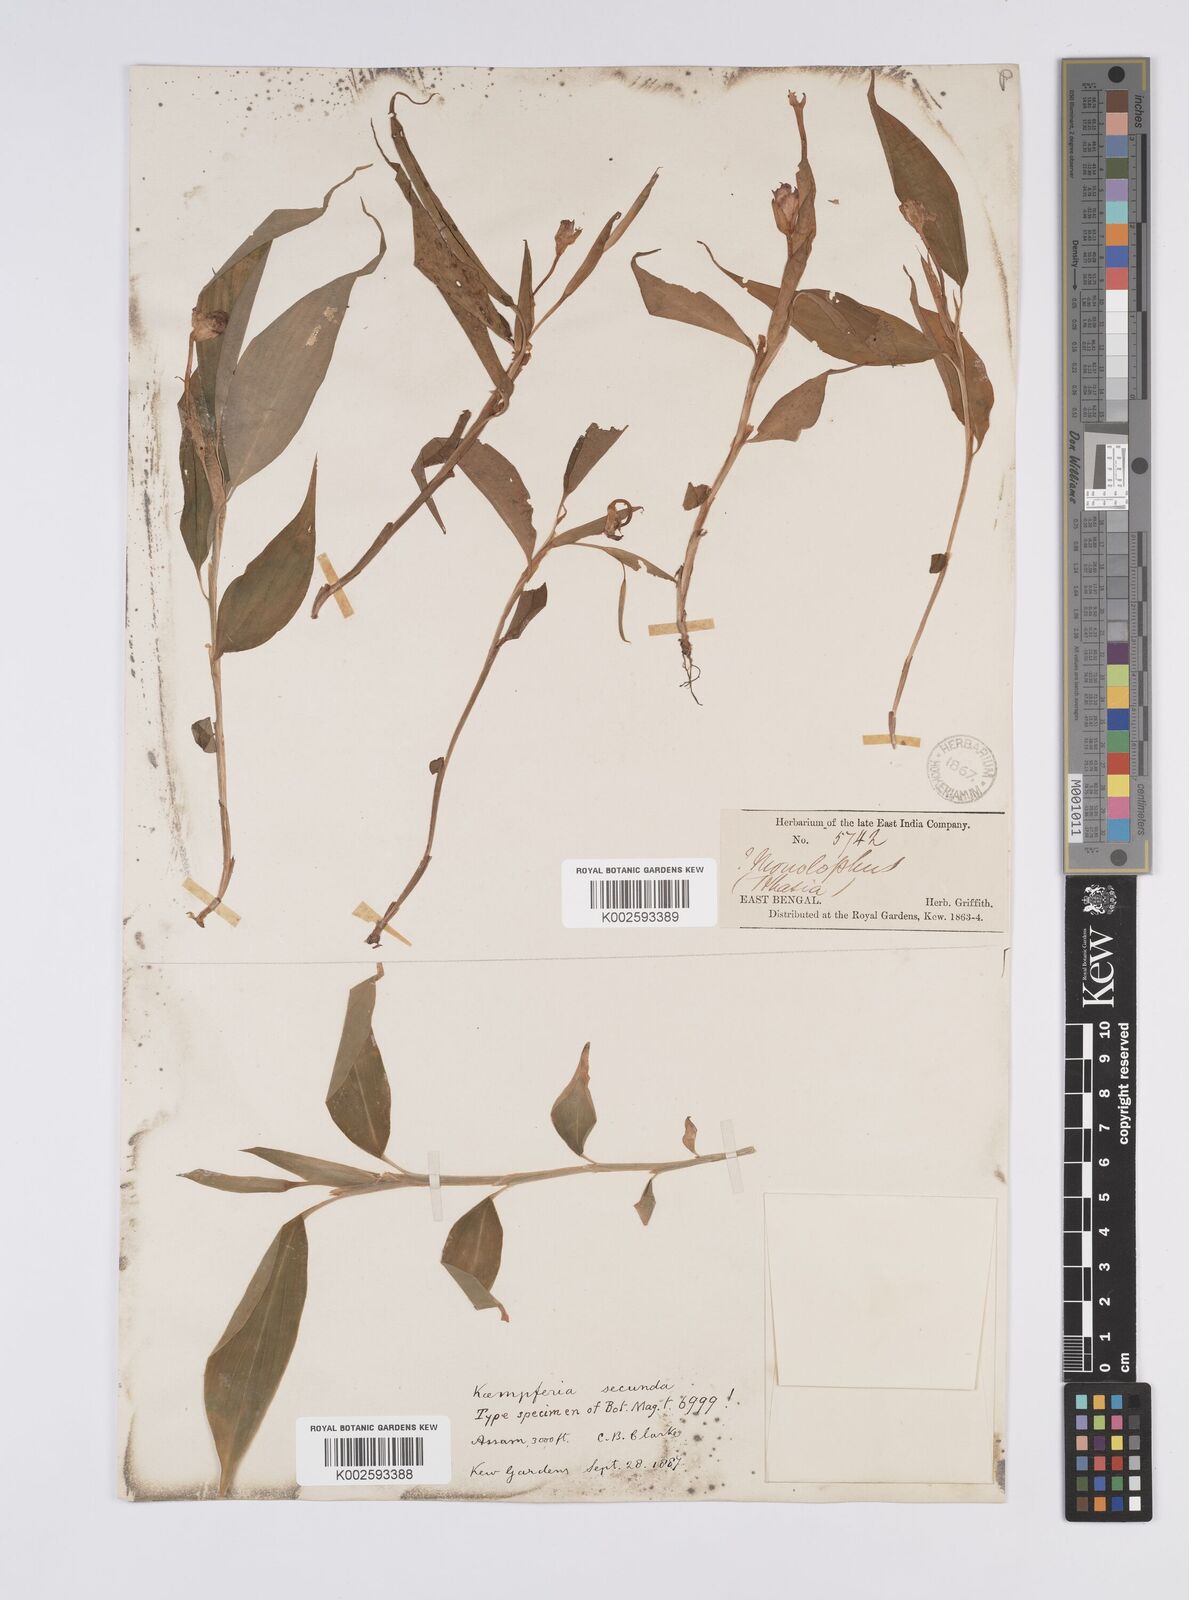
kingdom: Plantae
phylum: Tracheophyta
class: Liliopsida
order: Zingiberales
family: Zingiberaceae
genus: Caulokaempferia
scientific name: Caulokaempferia secunda
